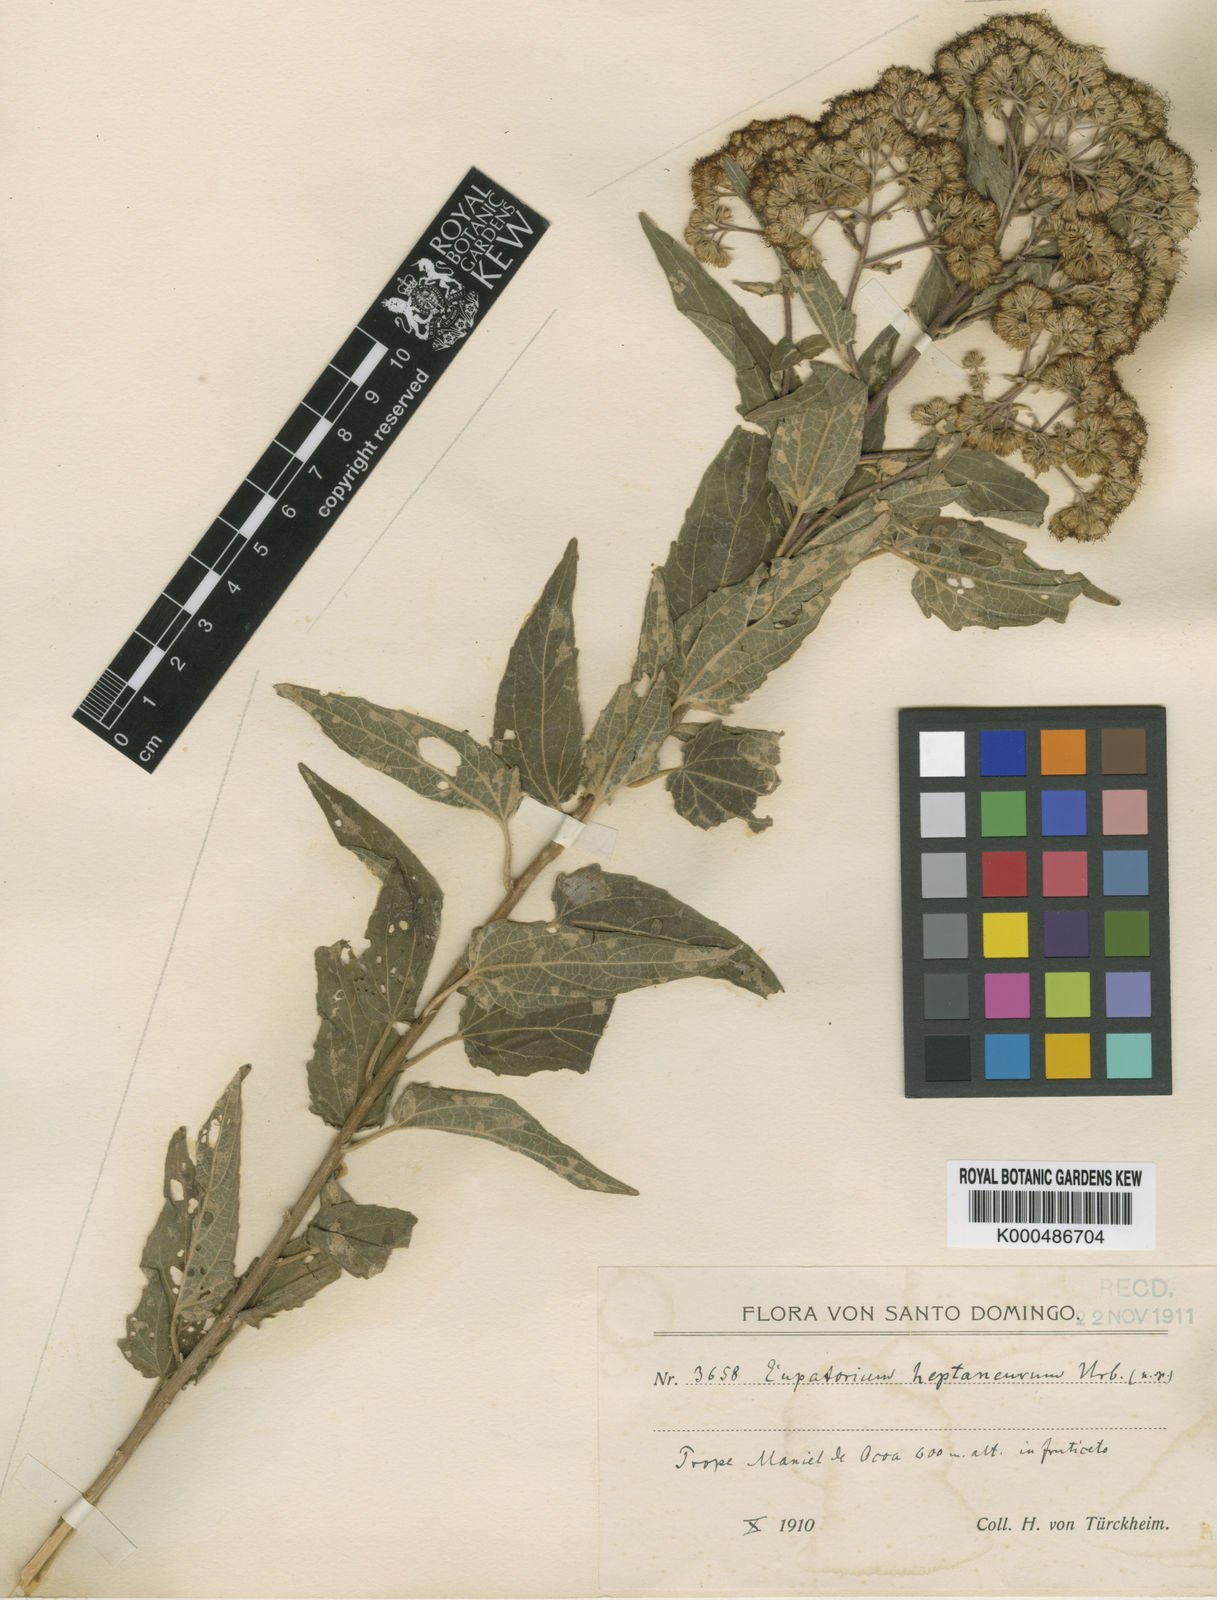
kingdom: Plantae
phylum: Tracheophyta
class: Magnoliopsida
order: Asterales
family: Asteraceae
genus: Koanophyllon
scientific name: Koanophyllon heptaneurum
